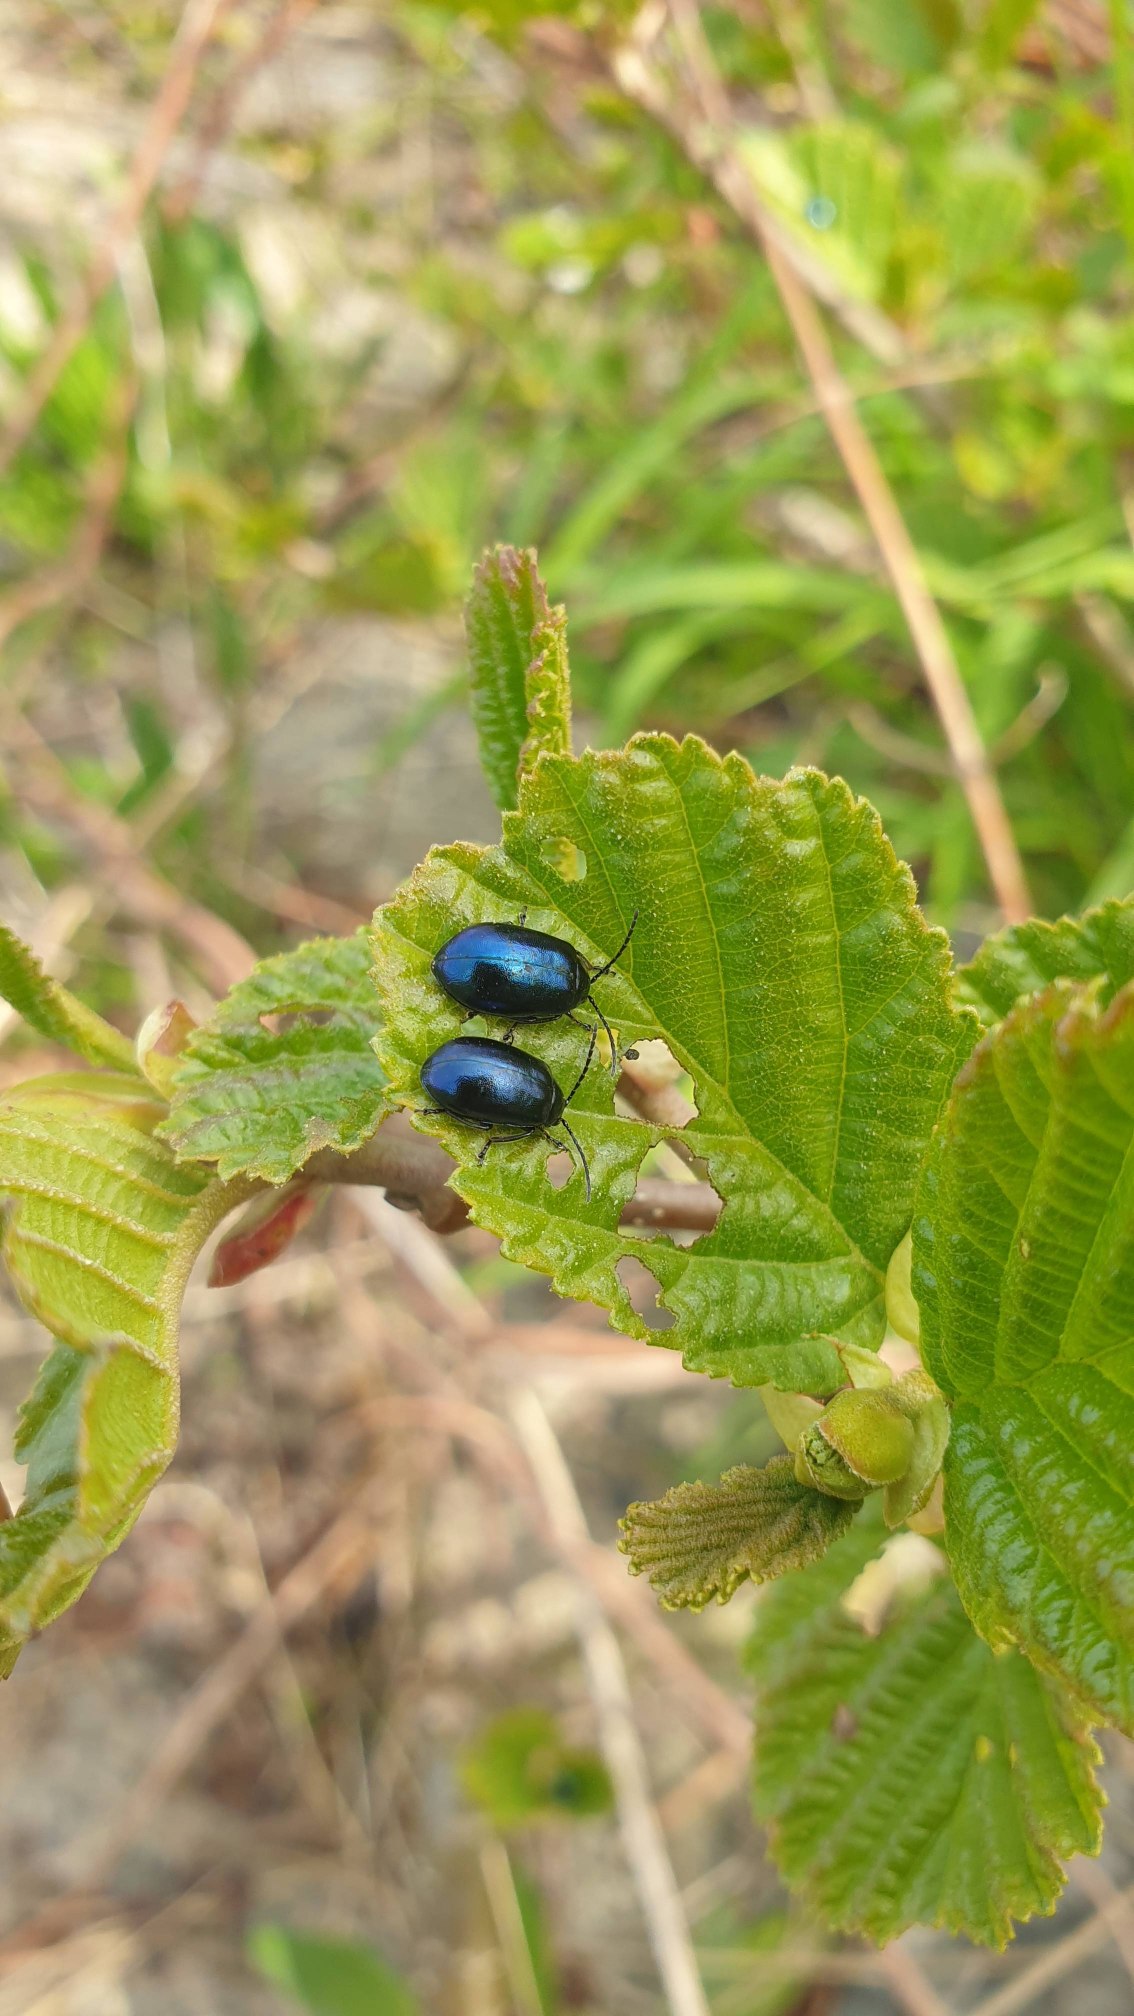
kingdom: Animalia
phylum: Arthropoda
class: Insecta
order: Coleoptera
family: Chrysomelidae
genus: Agelastica
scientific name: Agelastica alni
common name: Ellebladbille
